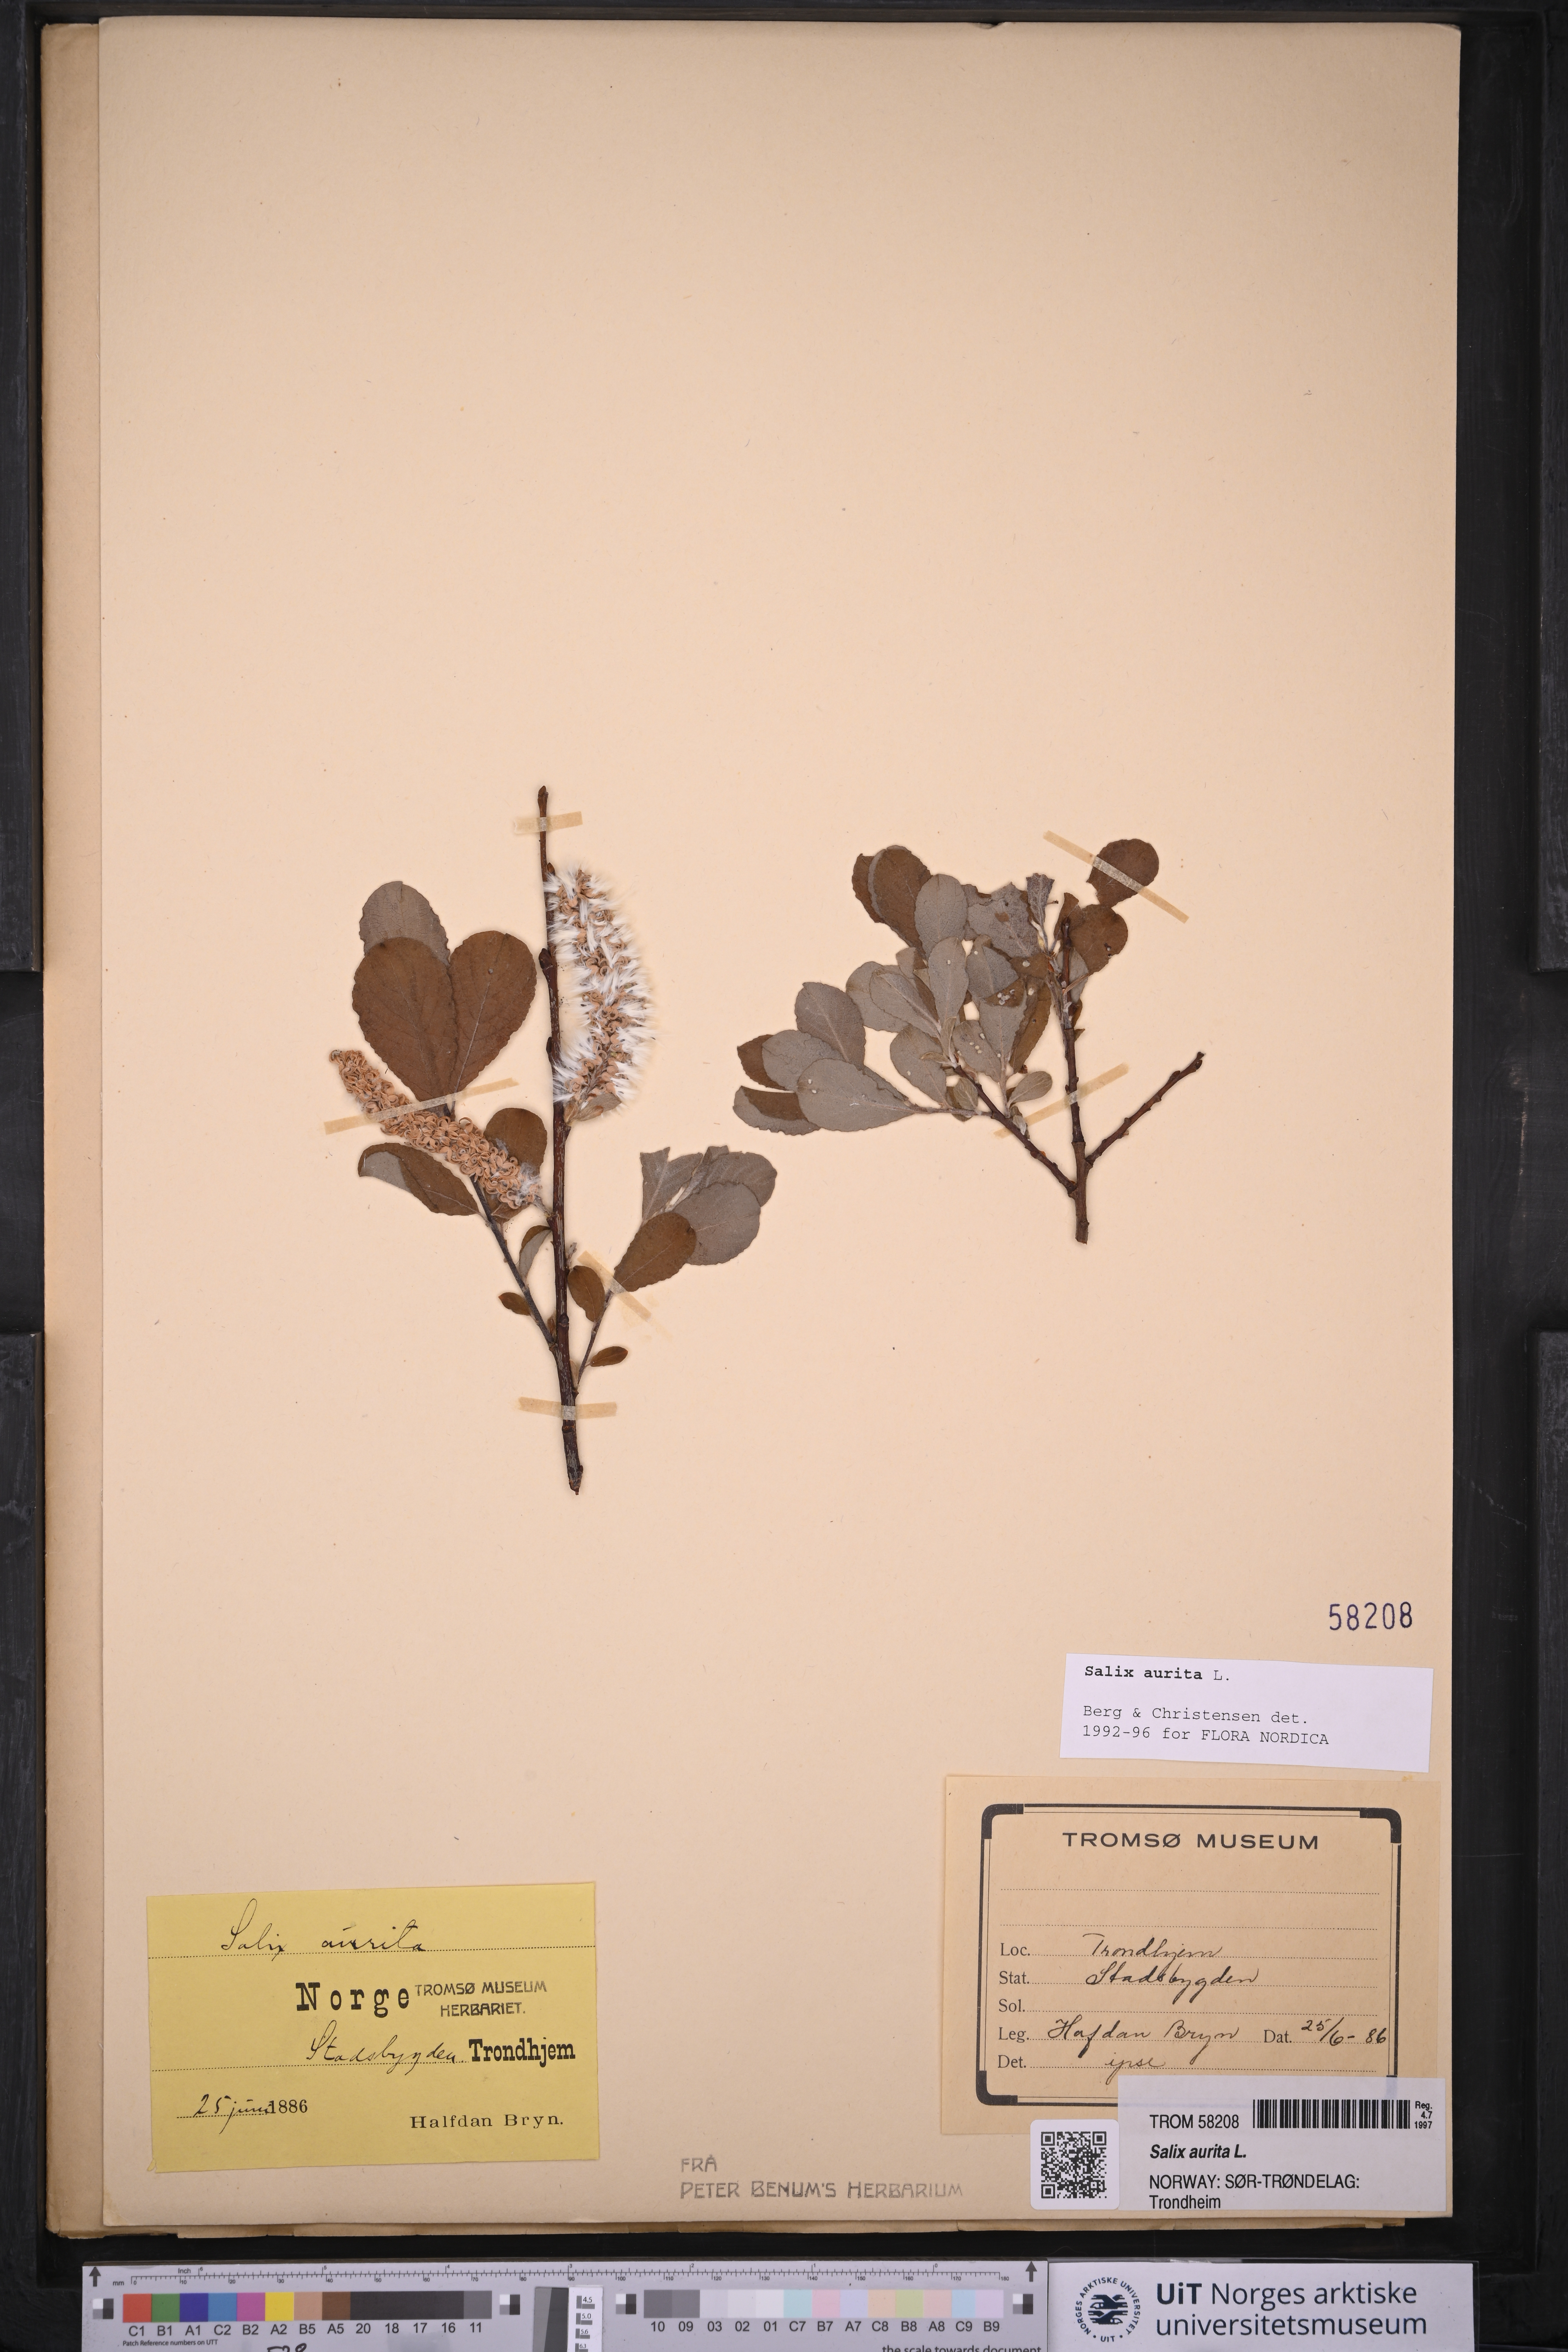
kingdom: Plantae
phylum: Tracheophyta
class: Magnoliopsida
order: Malpighiales
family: Salicaceae
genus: Salix
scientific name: Salix aurita
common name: Eared willow
